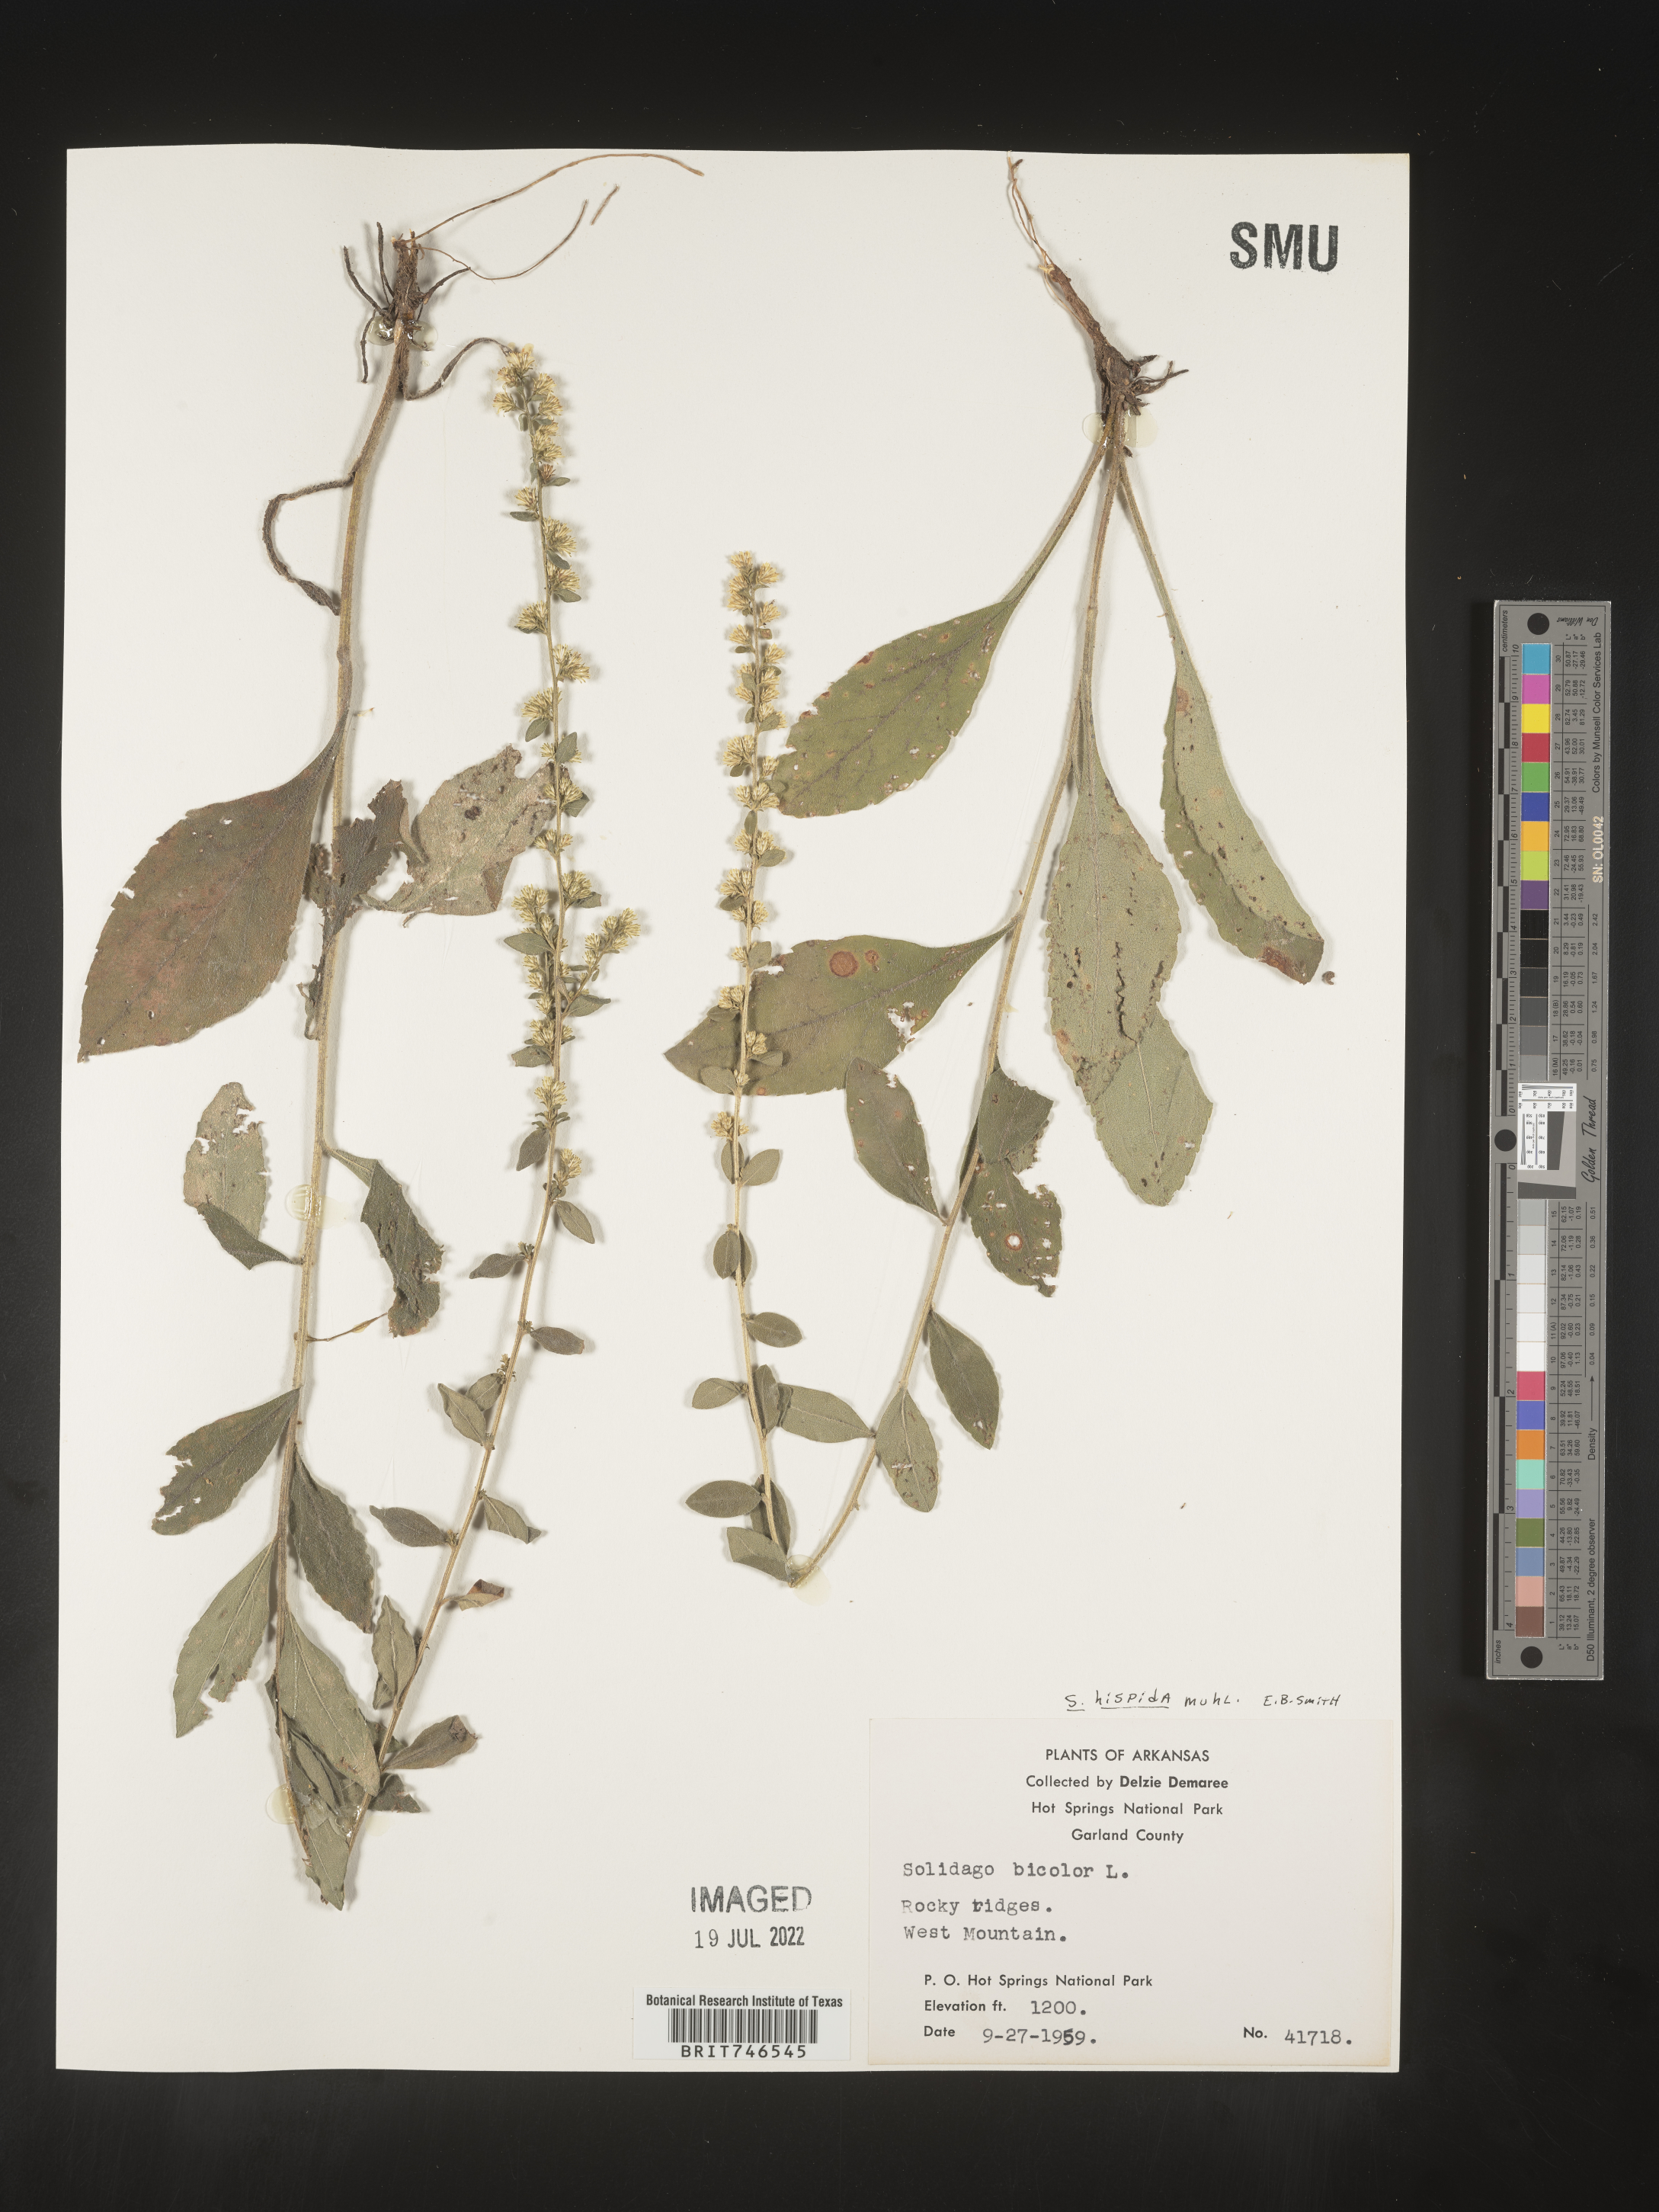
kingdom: Plantae
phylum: Tracheophyta
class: Magnoliopsida
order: Asterales
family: Asteraceae
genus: Solidago
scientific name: Solidago hispida
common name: Hairy goldenrod
